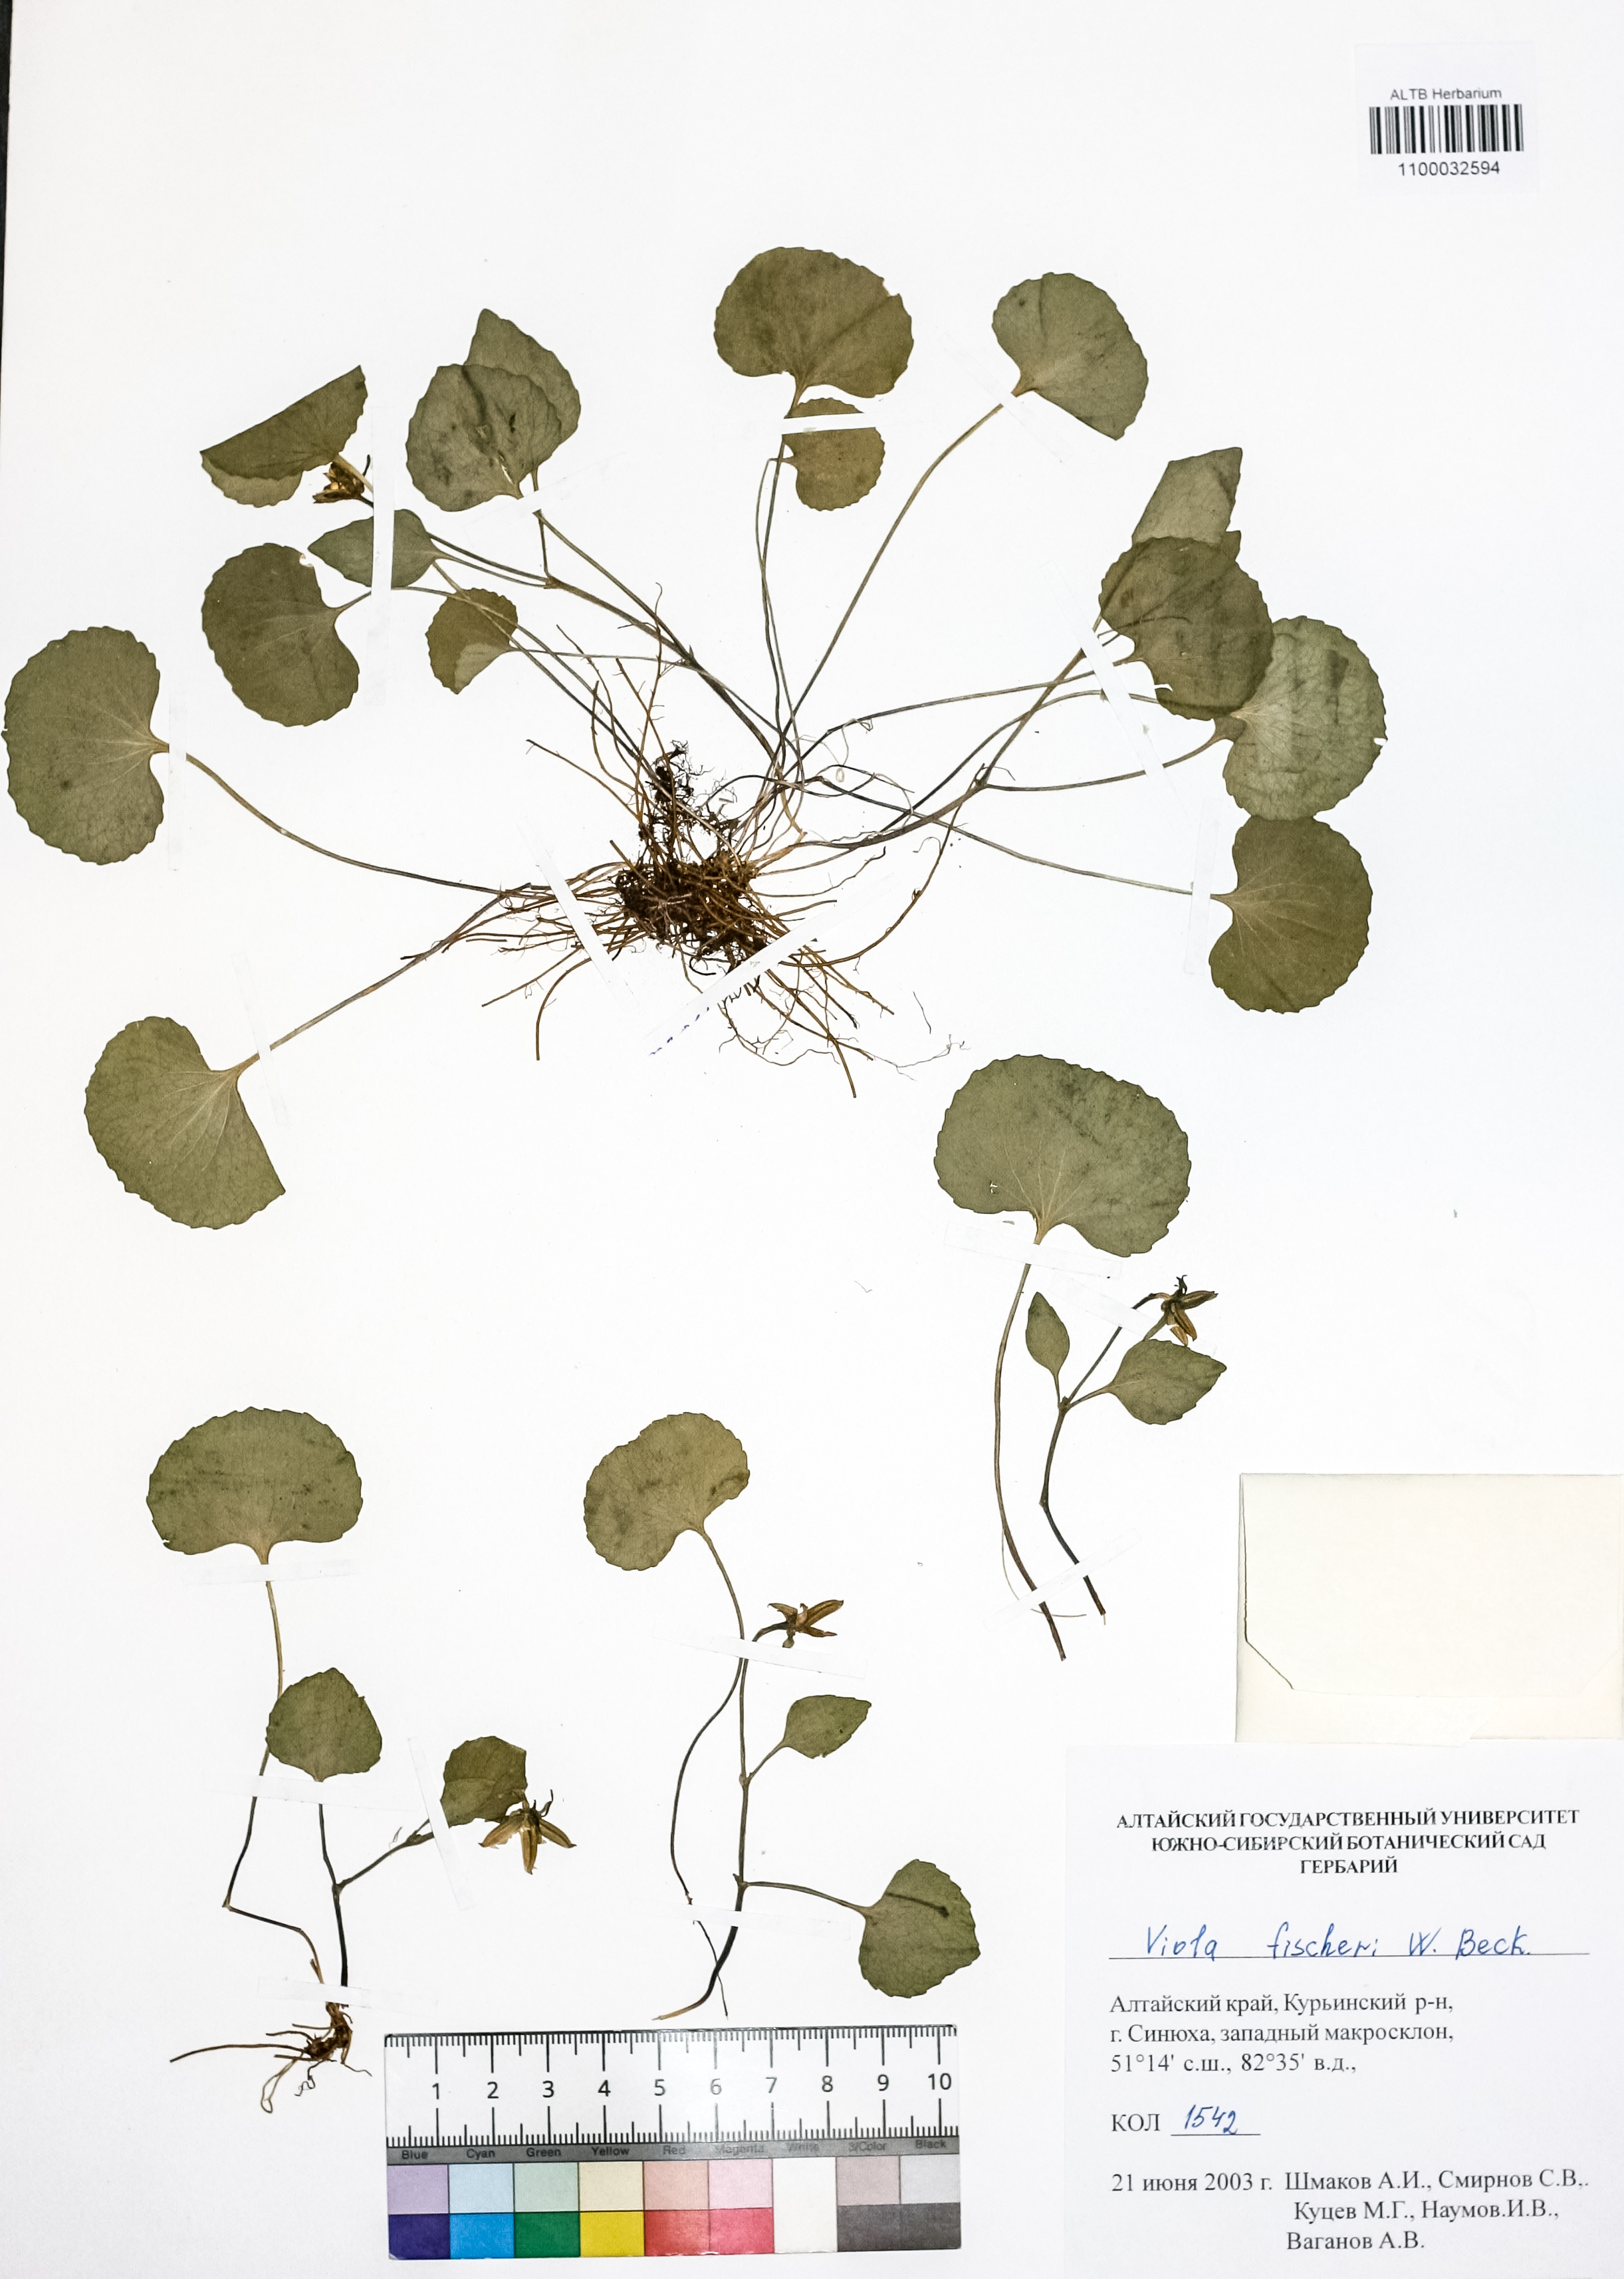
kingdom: Plantae
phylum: Tracheophyta
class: Magnoliopsida
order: Malpighiales
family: Violaceae
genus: Viola
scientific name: Viola fischeri
